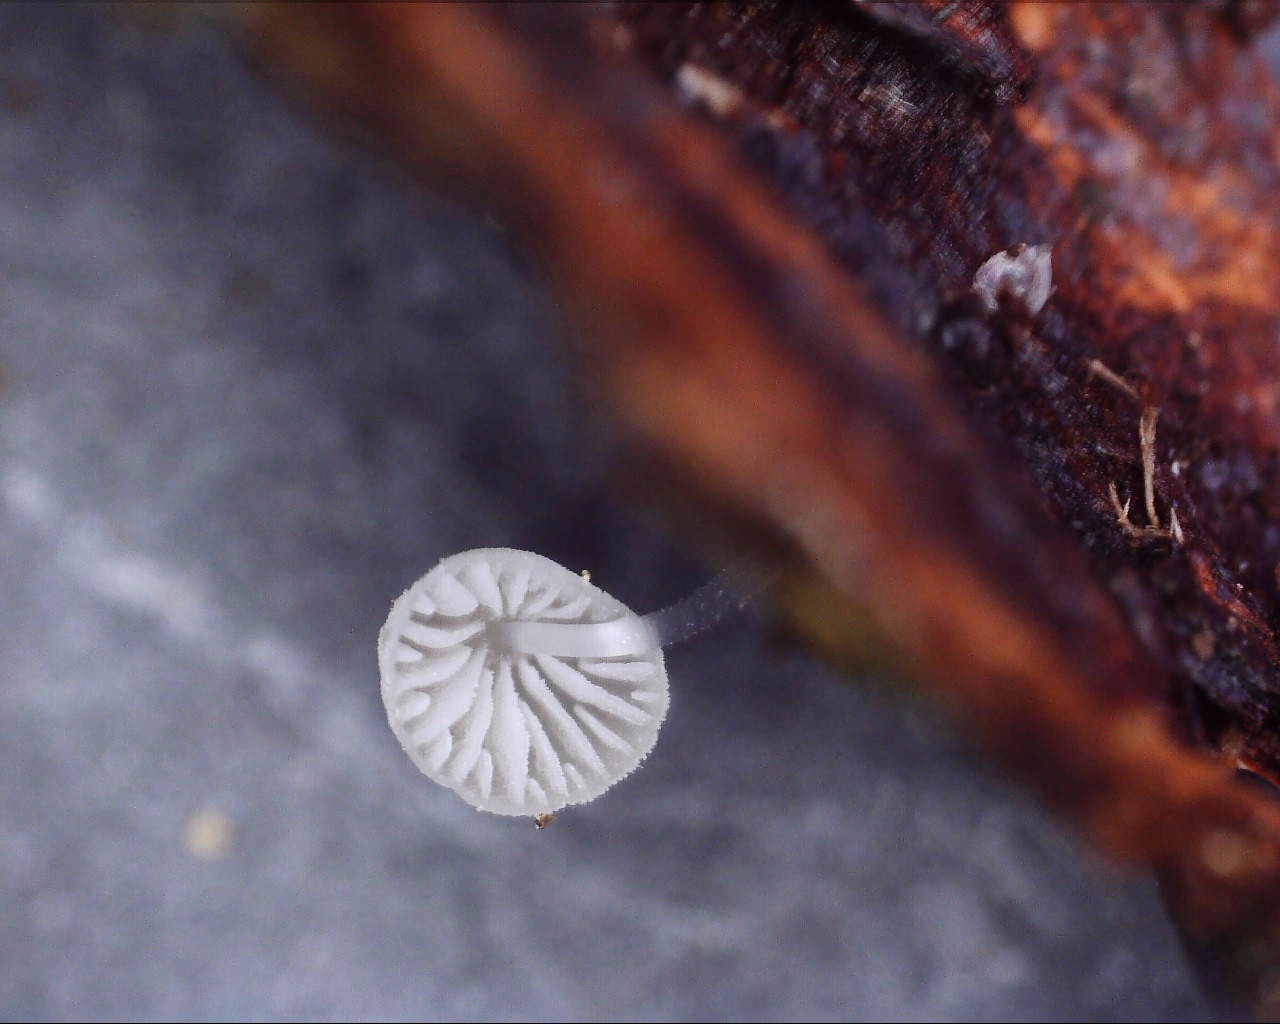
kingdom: Fungi
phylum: Basidiomycota
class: Agaricomycetes
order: Agaricales
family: Mycenaceae
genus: Mycena
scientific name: Mycena tenerrima
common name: pudret huesvamp
